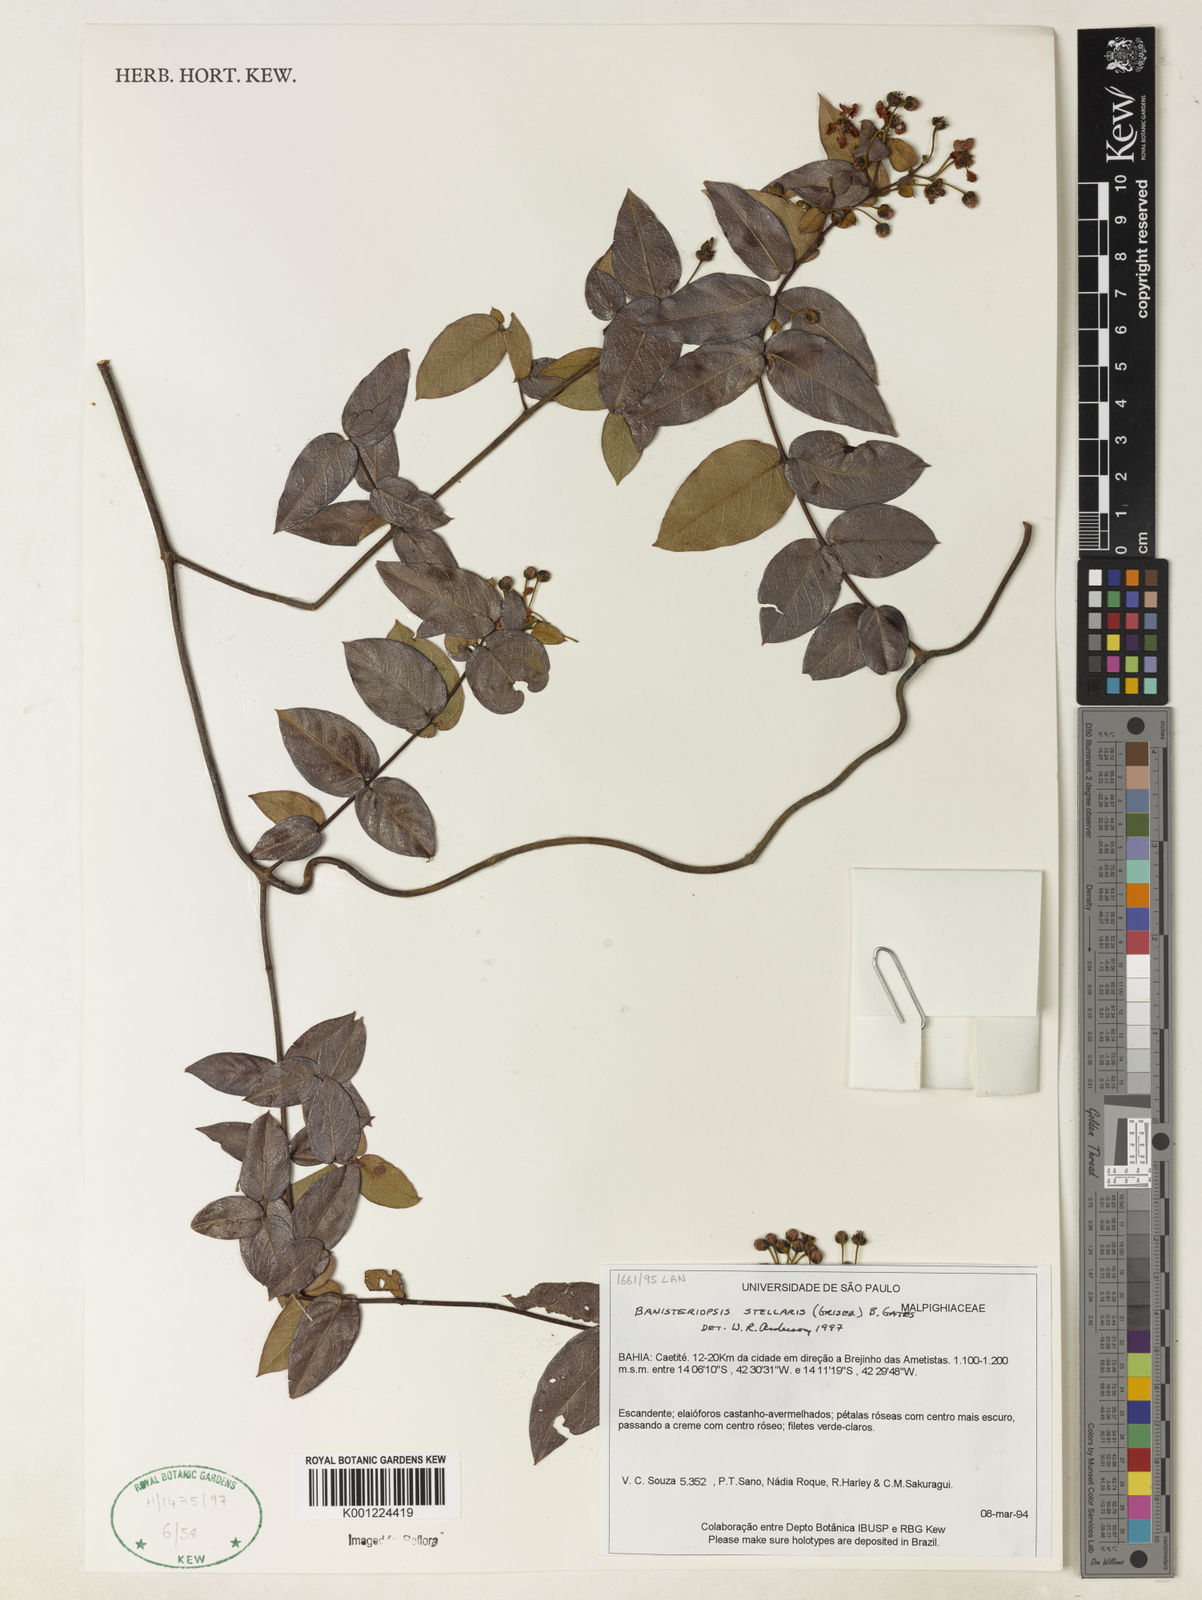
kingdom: Plantae
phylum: Tracheophyta
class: Magnoliopsida
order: Malpighiales
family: Malpighiaceae
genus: Banisteriopsis
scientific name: Banisteriopsis stellaris
